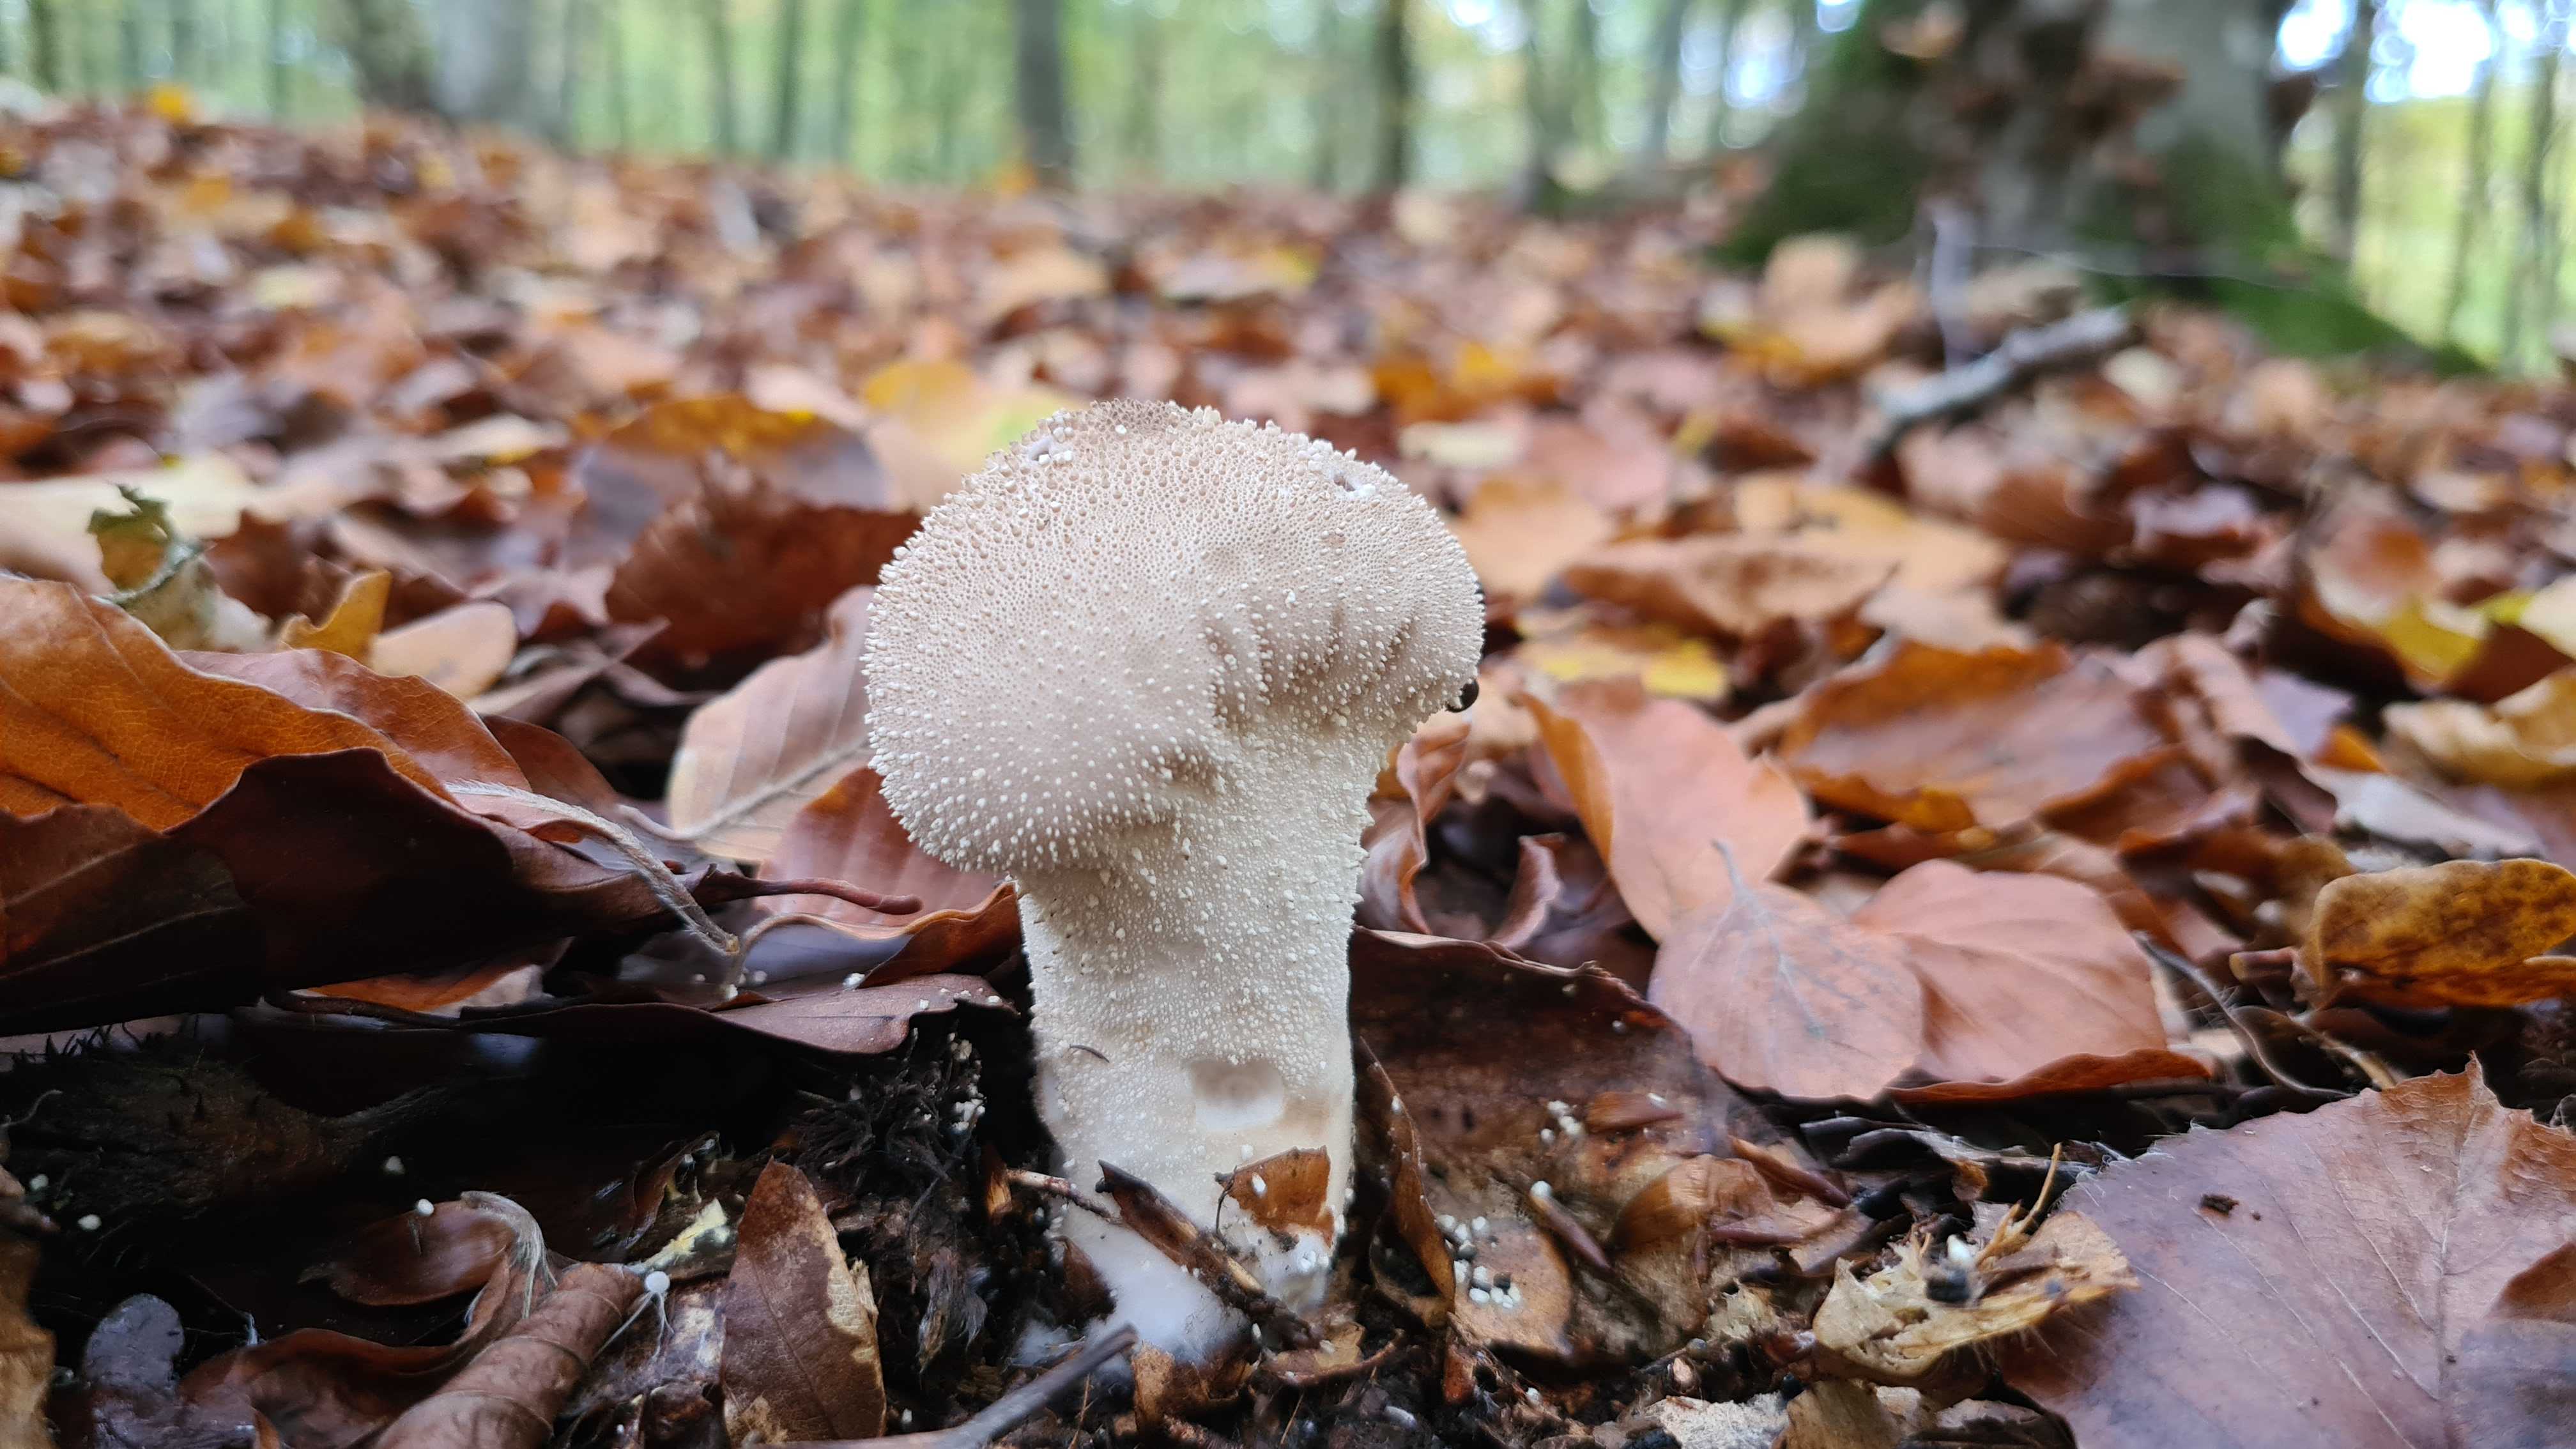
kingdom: Fungi
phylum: Basidiomycota
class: Agaricomycetes
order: Agaricales
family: Lycoperdaceae
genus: Lycoperdon
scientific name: Lycoperdon perlatum
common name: krystal-støvbold
